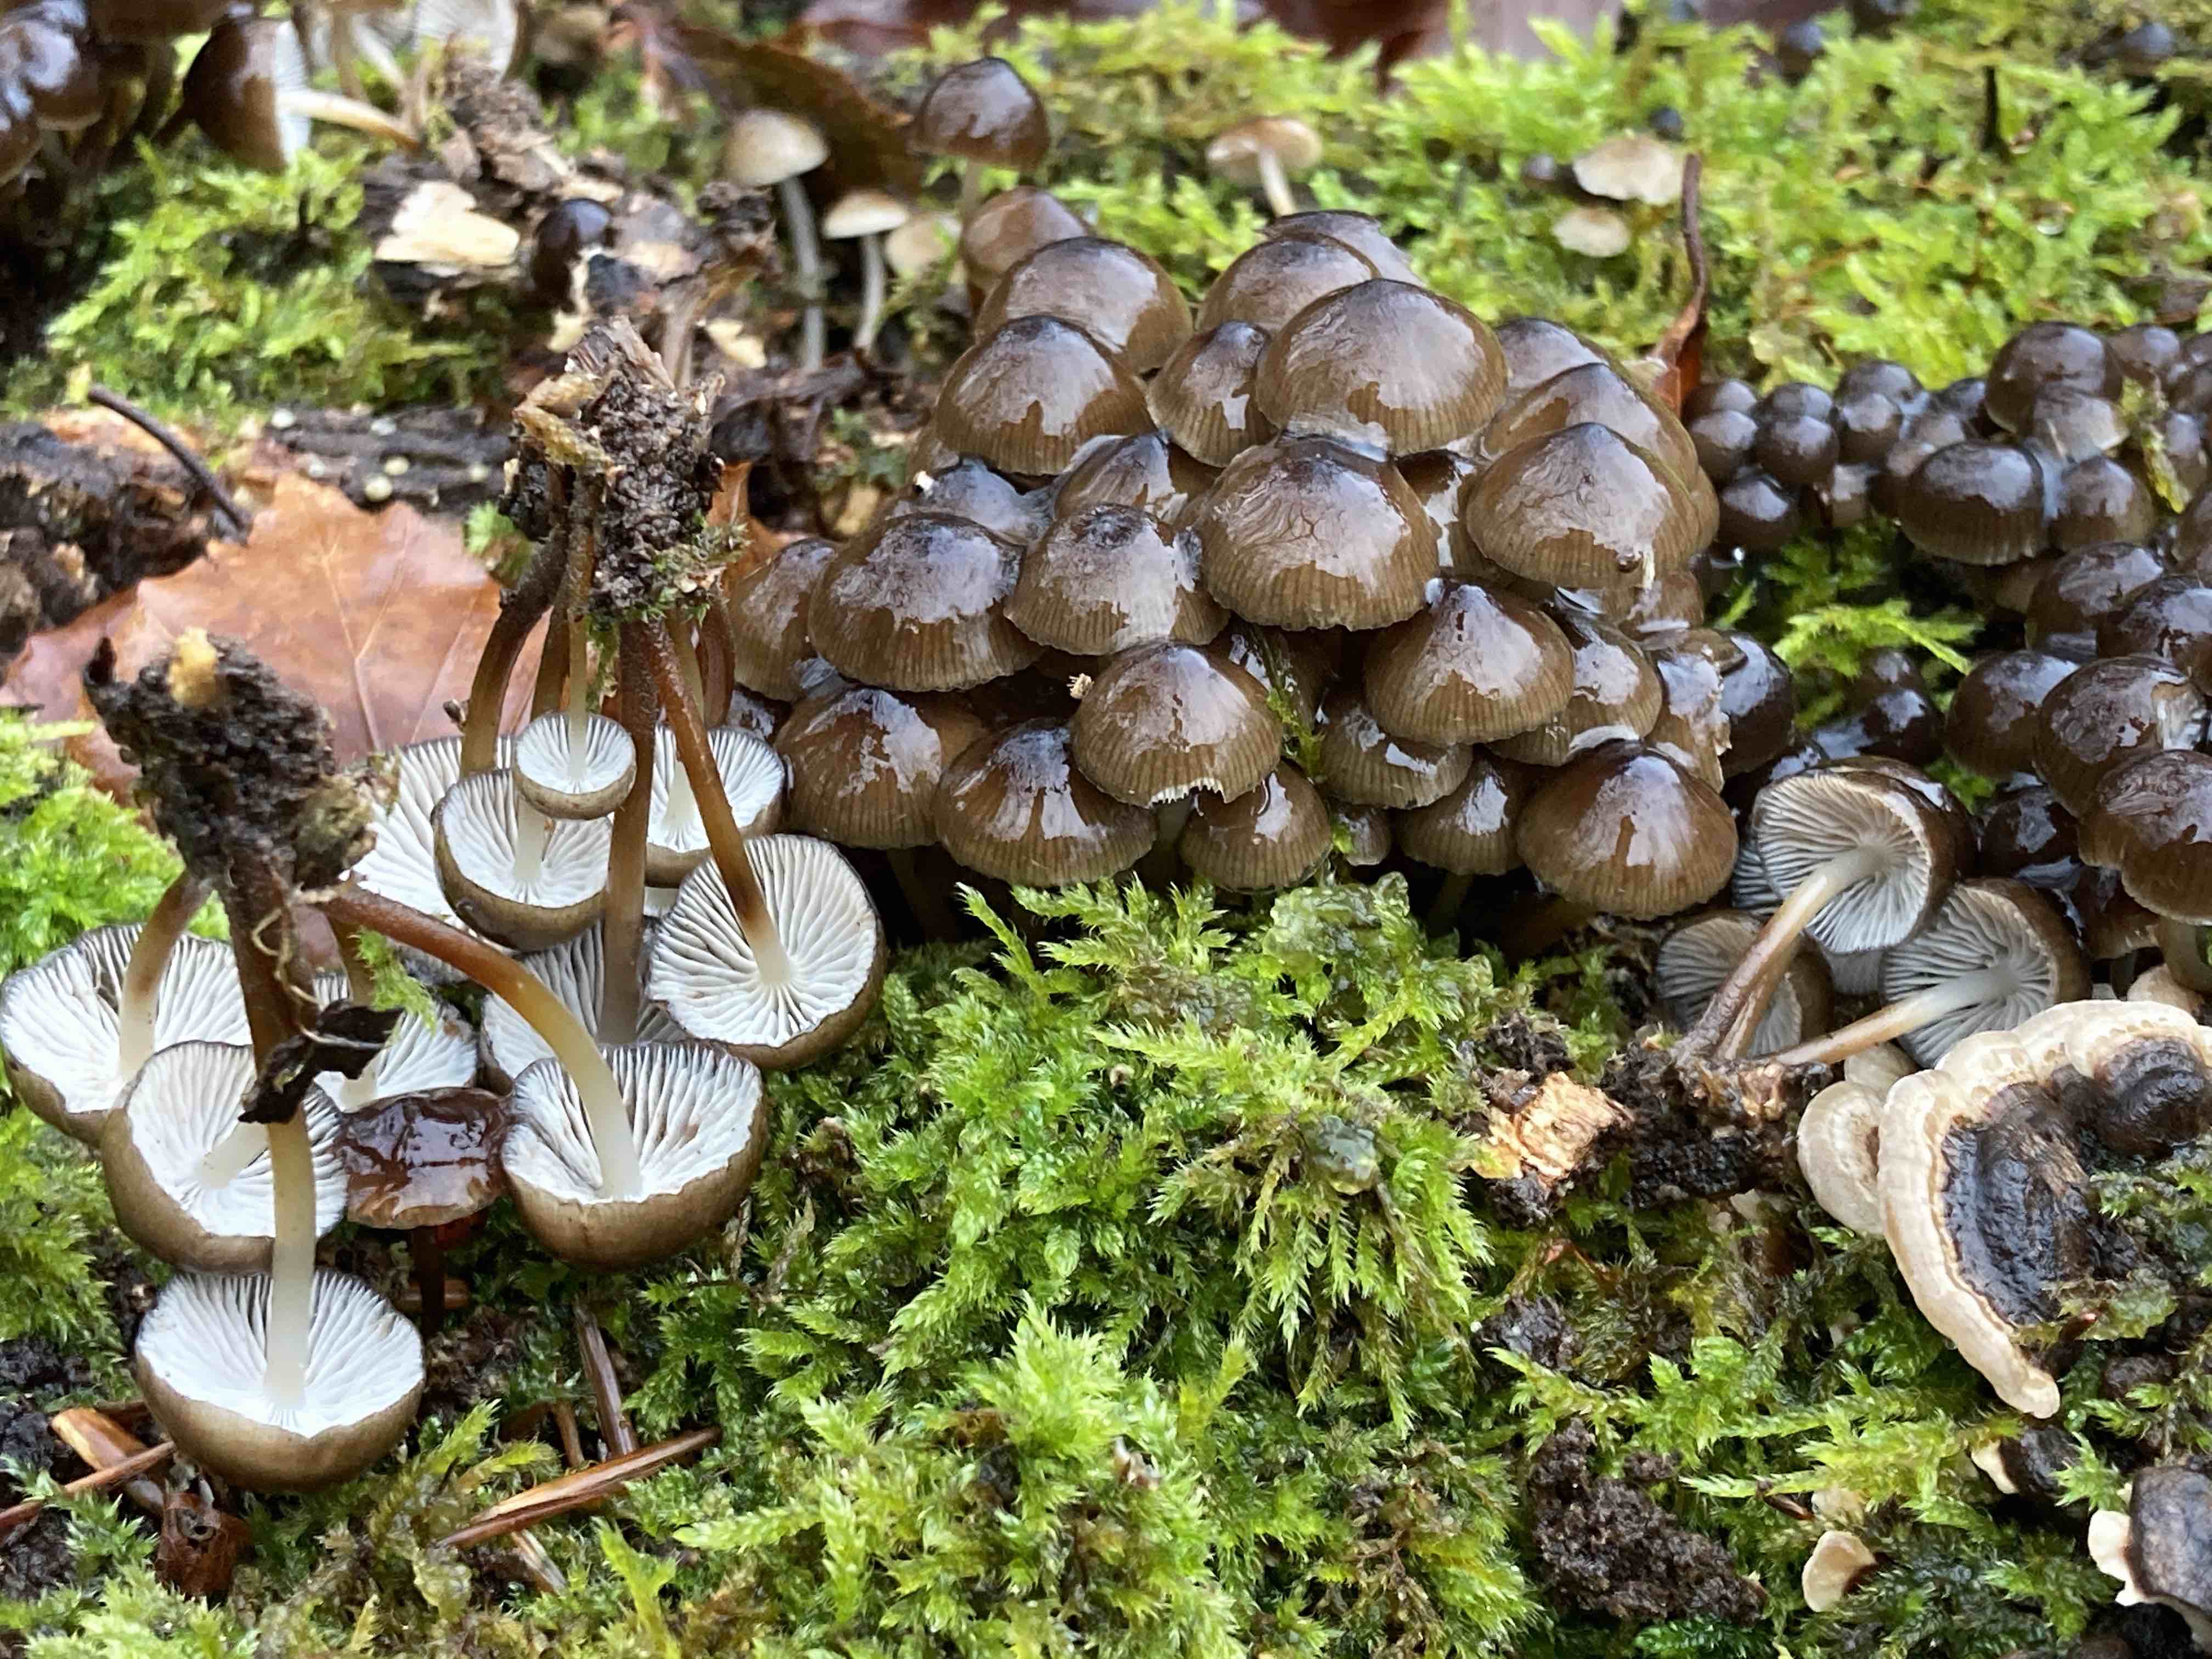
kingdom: Fungi
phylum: Basidiomycota
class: Agaricomycetes
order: Agaricales
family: Mycenaceae
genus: Mycena
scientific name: Mycena tintinnabulum
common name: vinter-huesvamp
